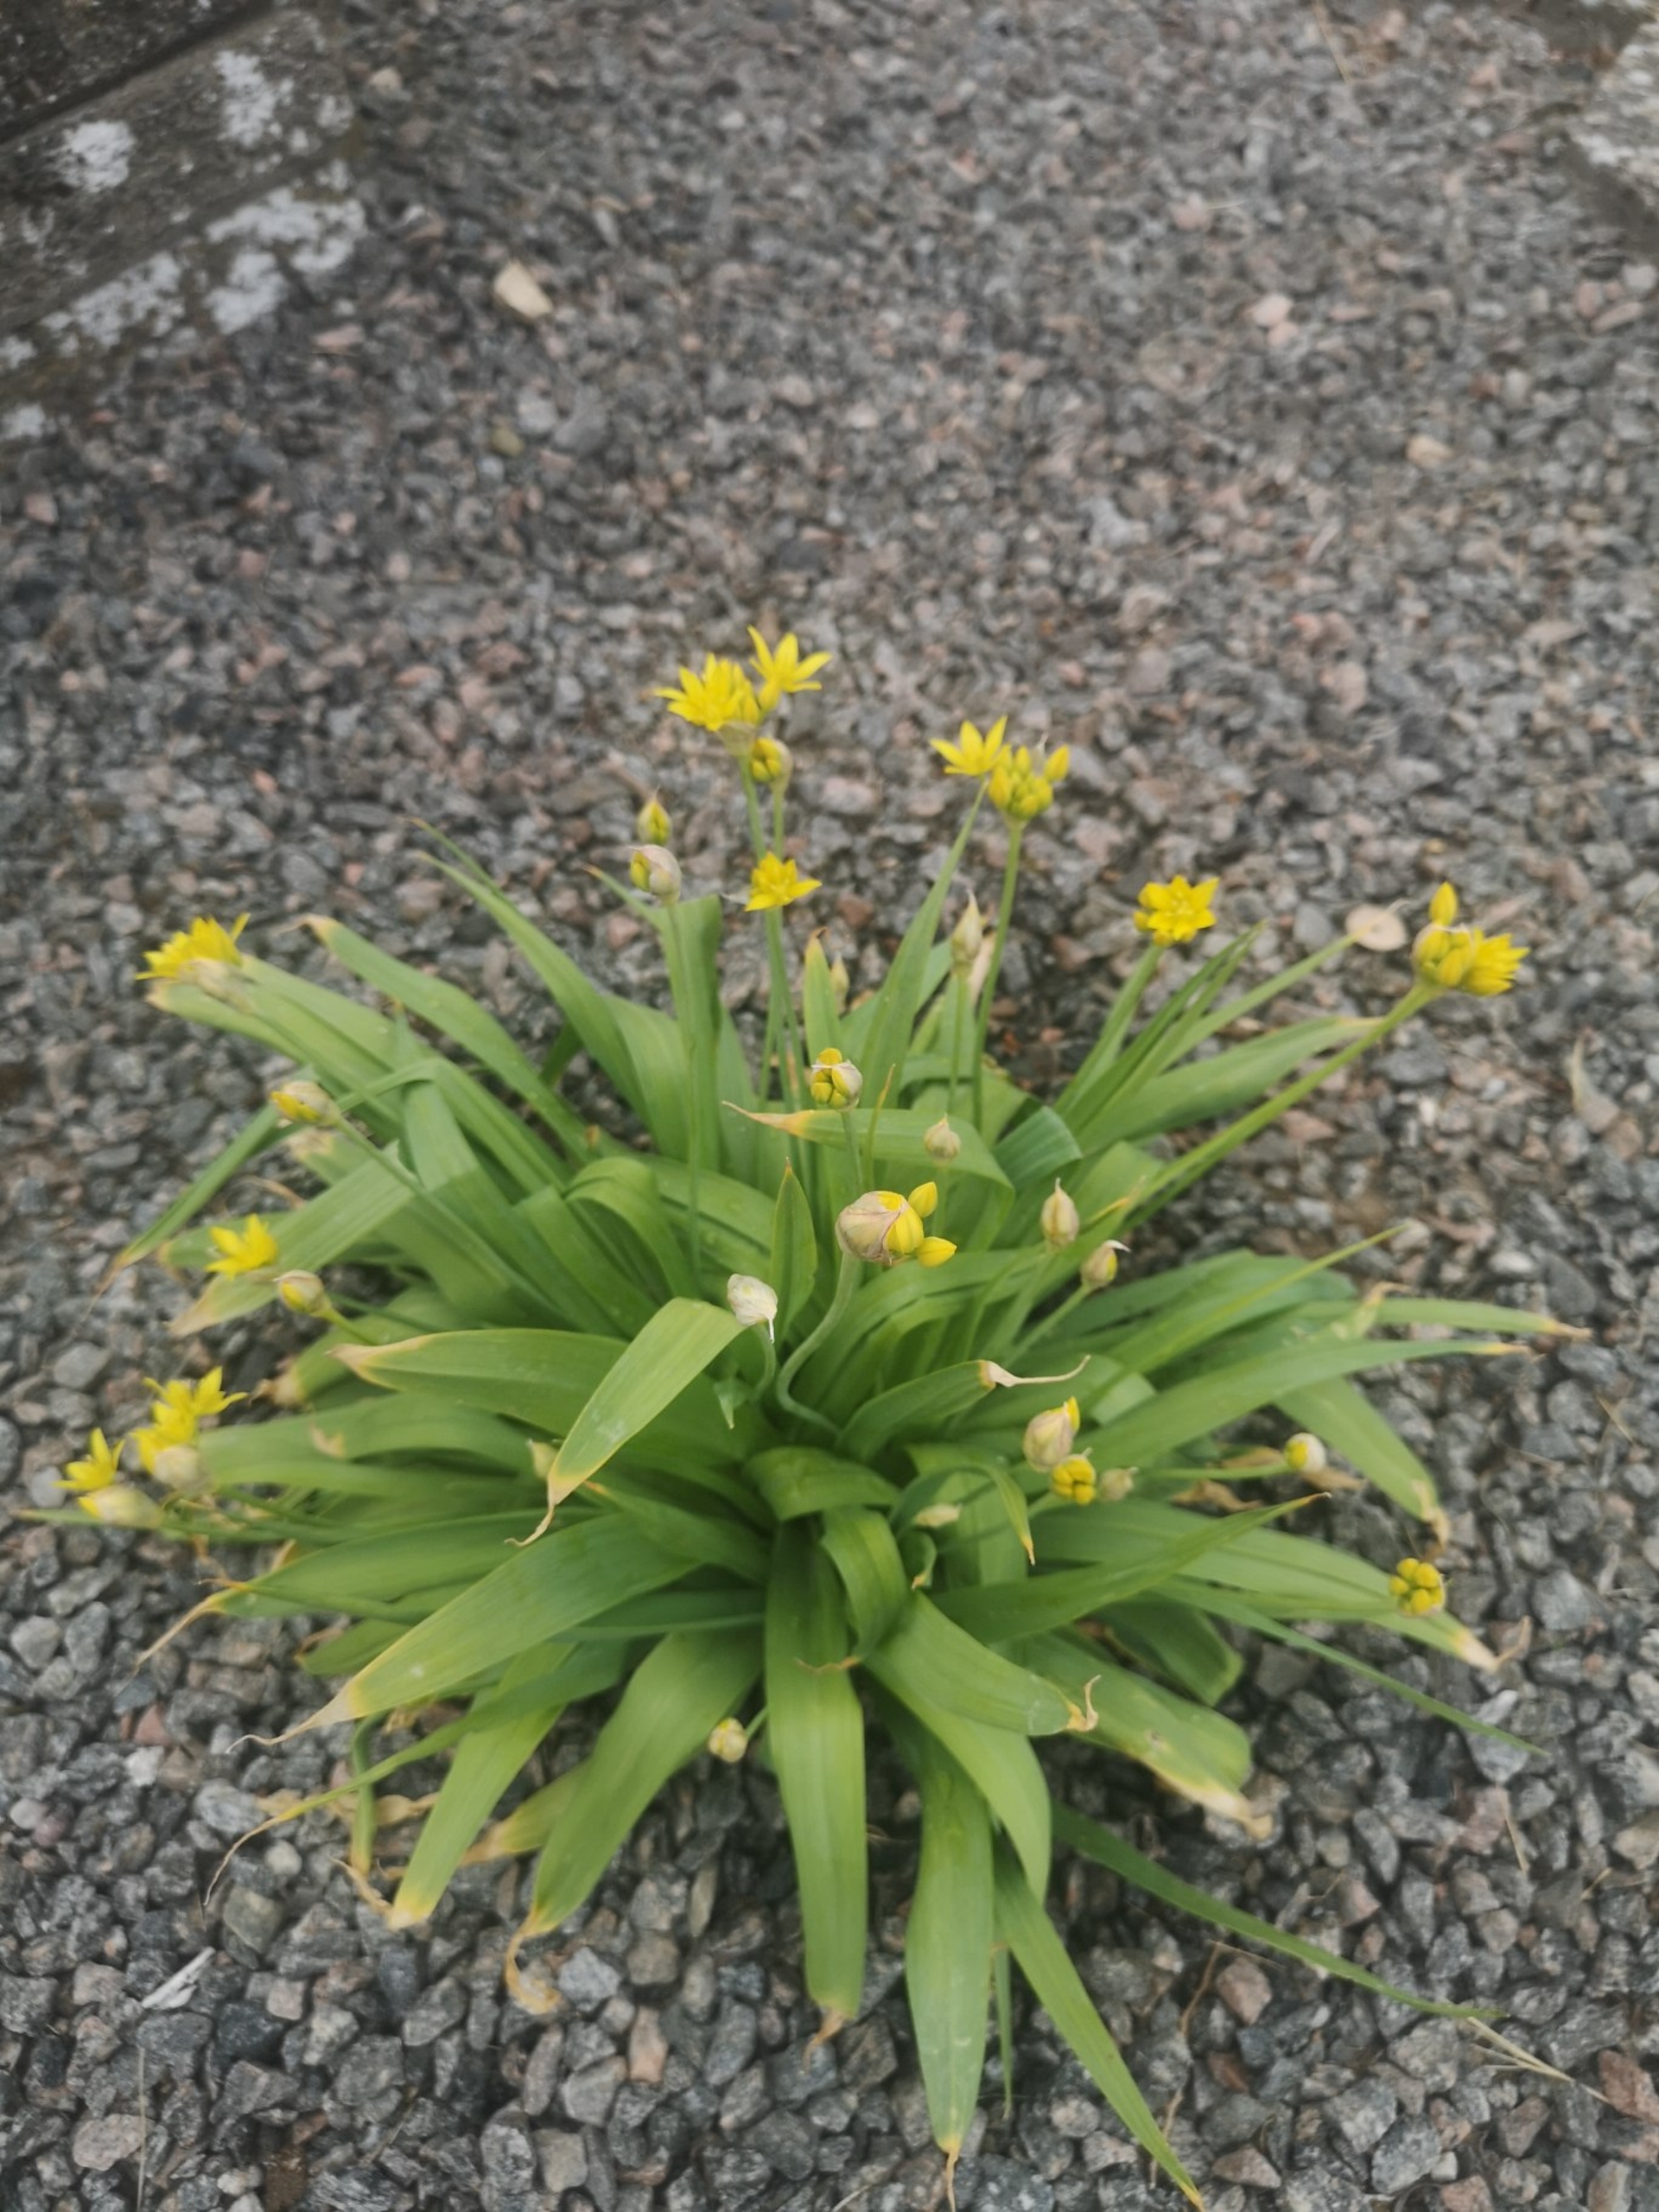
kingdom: Plantae
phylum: Tracheophyta
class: Liliopsida
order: Asparagales
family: Amaryllidaceae
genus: Allium
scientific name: Allium moly
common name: Guld-løg
